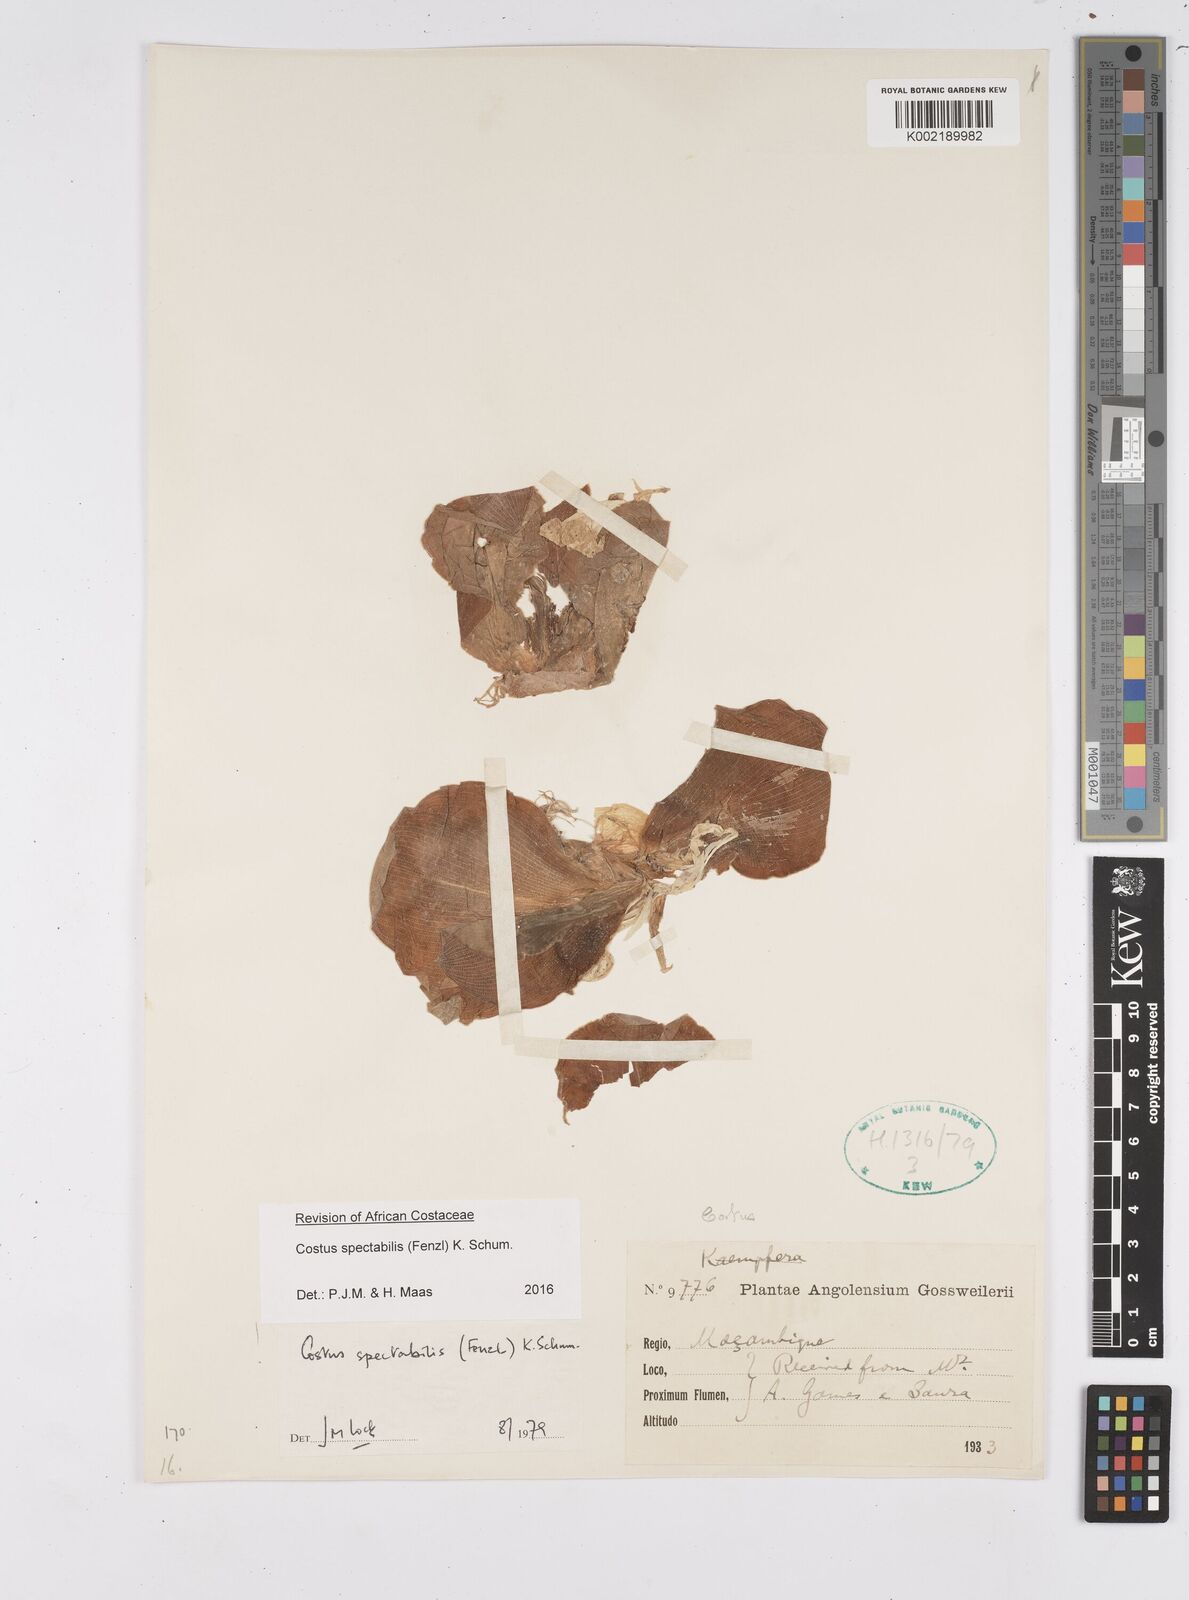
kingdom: Plantae
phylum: Tracheophyta
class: Liliopsida
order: Zingiberales
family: Costaceae
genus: Costus
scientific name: Costus spectabilis
